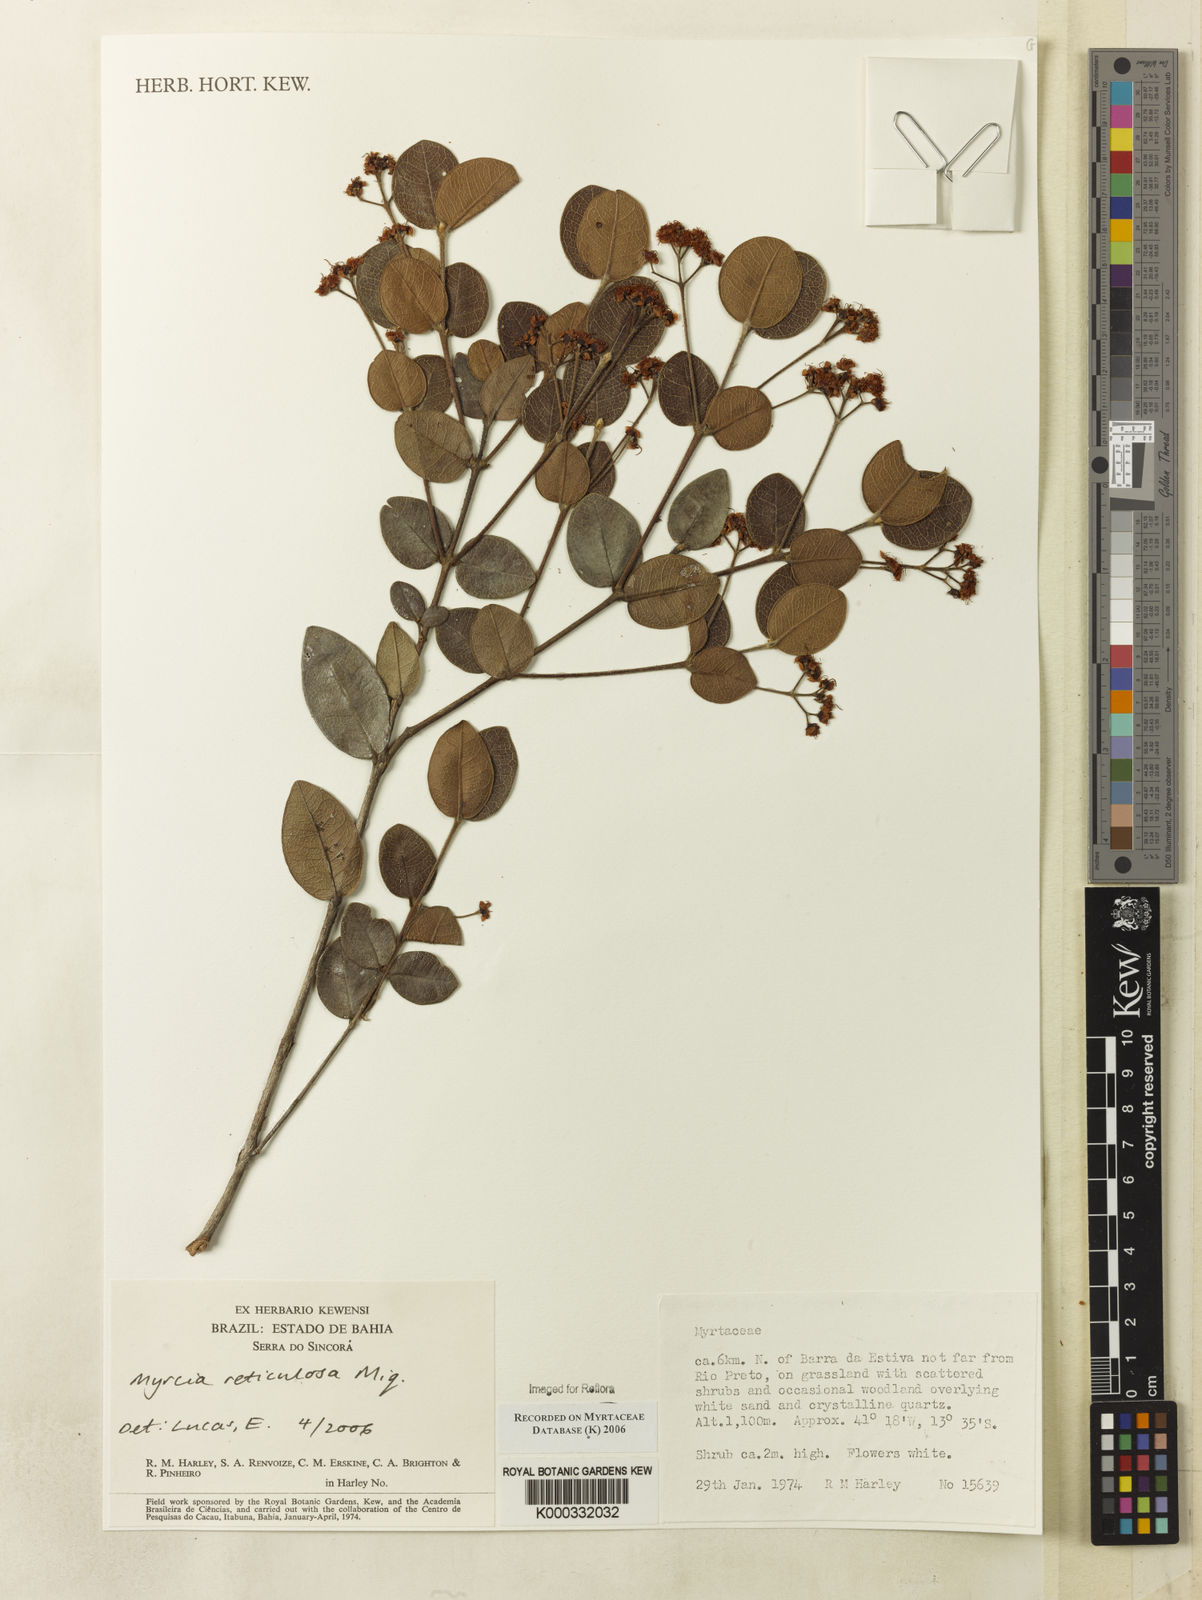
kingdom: Plantae
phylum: Tracheophyta
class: Magnoliopsida
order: Myrtales
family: Myrtaceae
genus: Myrcia
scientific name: Myrcia reticulosa
